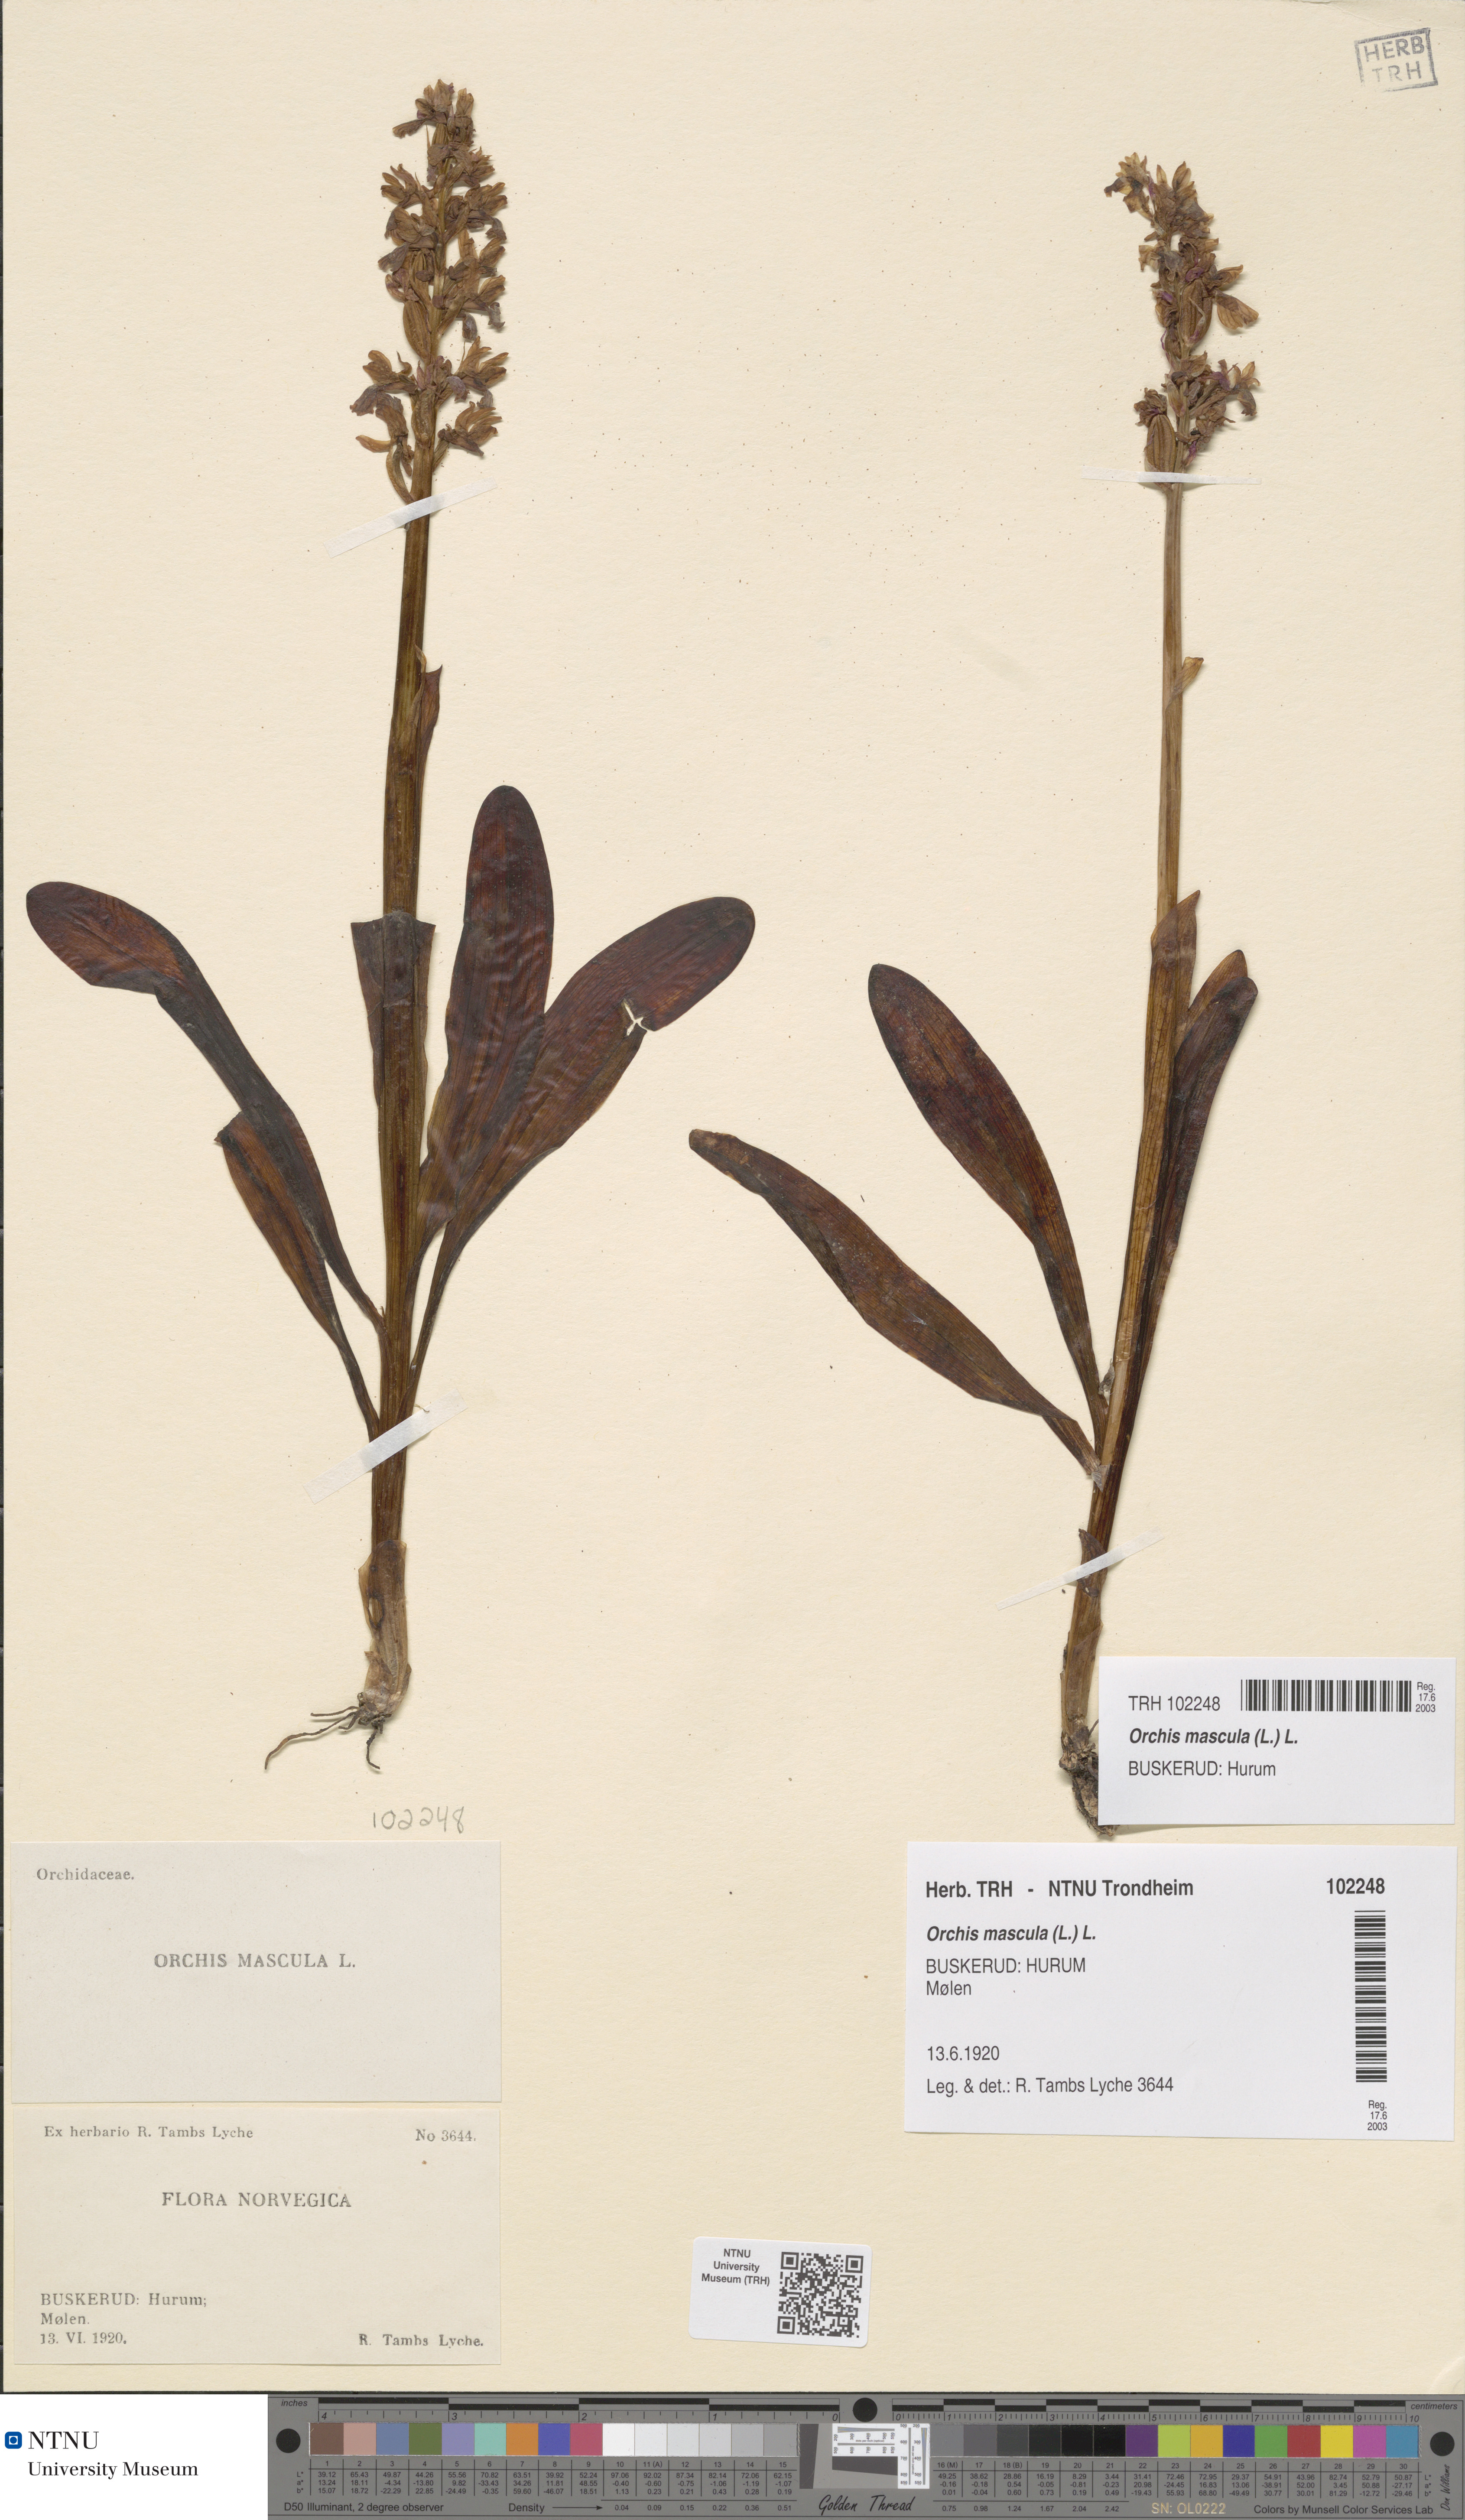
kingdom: Plantae
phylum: Tracheophyta
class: Liliopsida
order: Asparagales
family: Orchidaceae
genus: Orchis
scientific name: Orchis mascula
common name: Early-purple orchid
